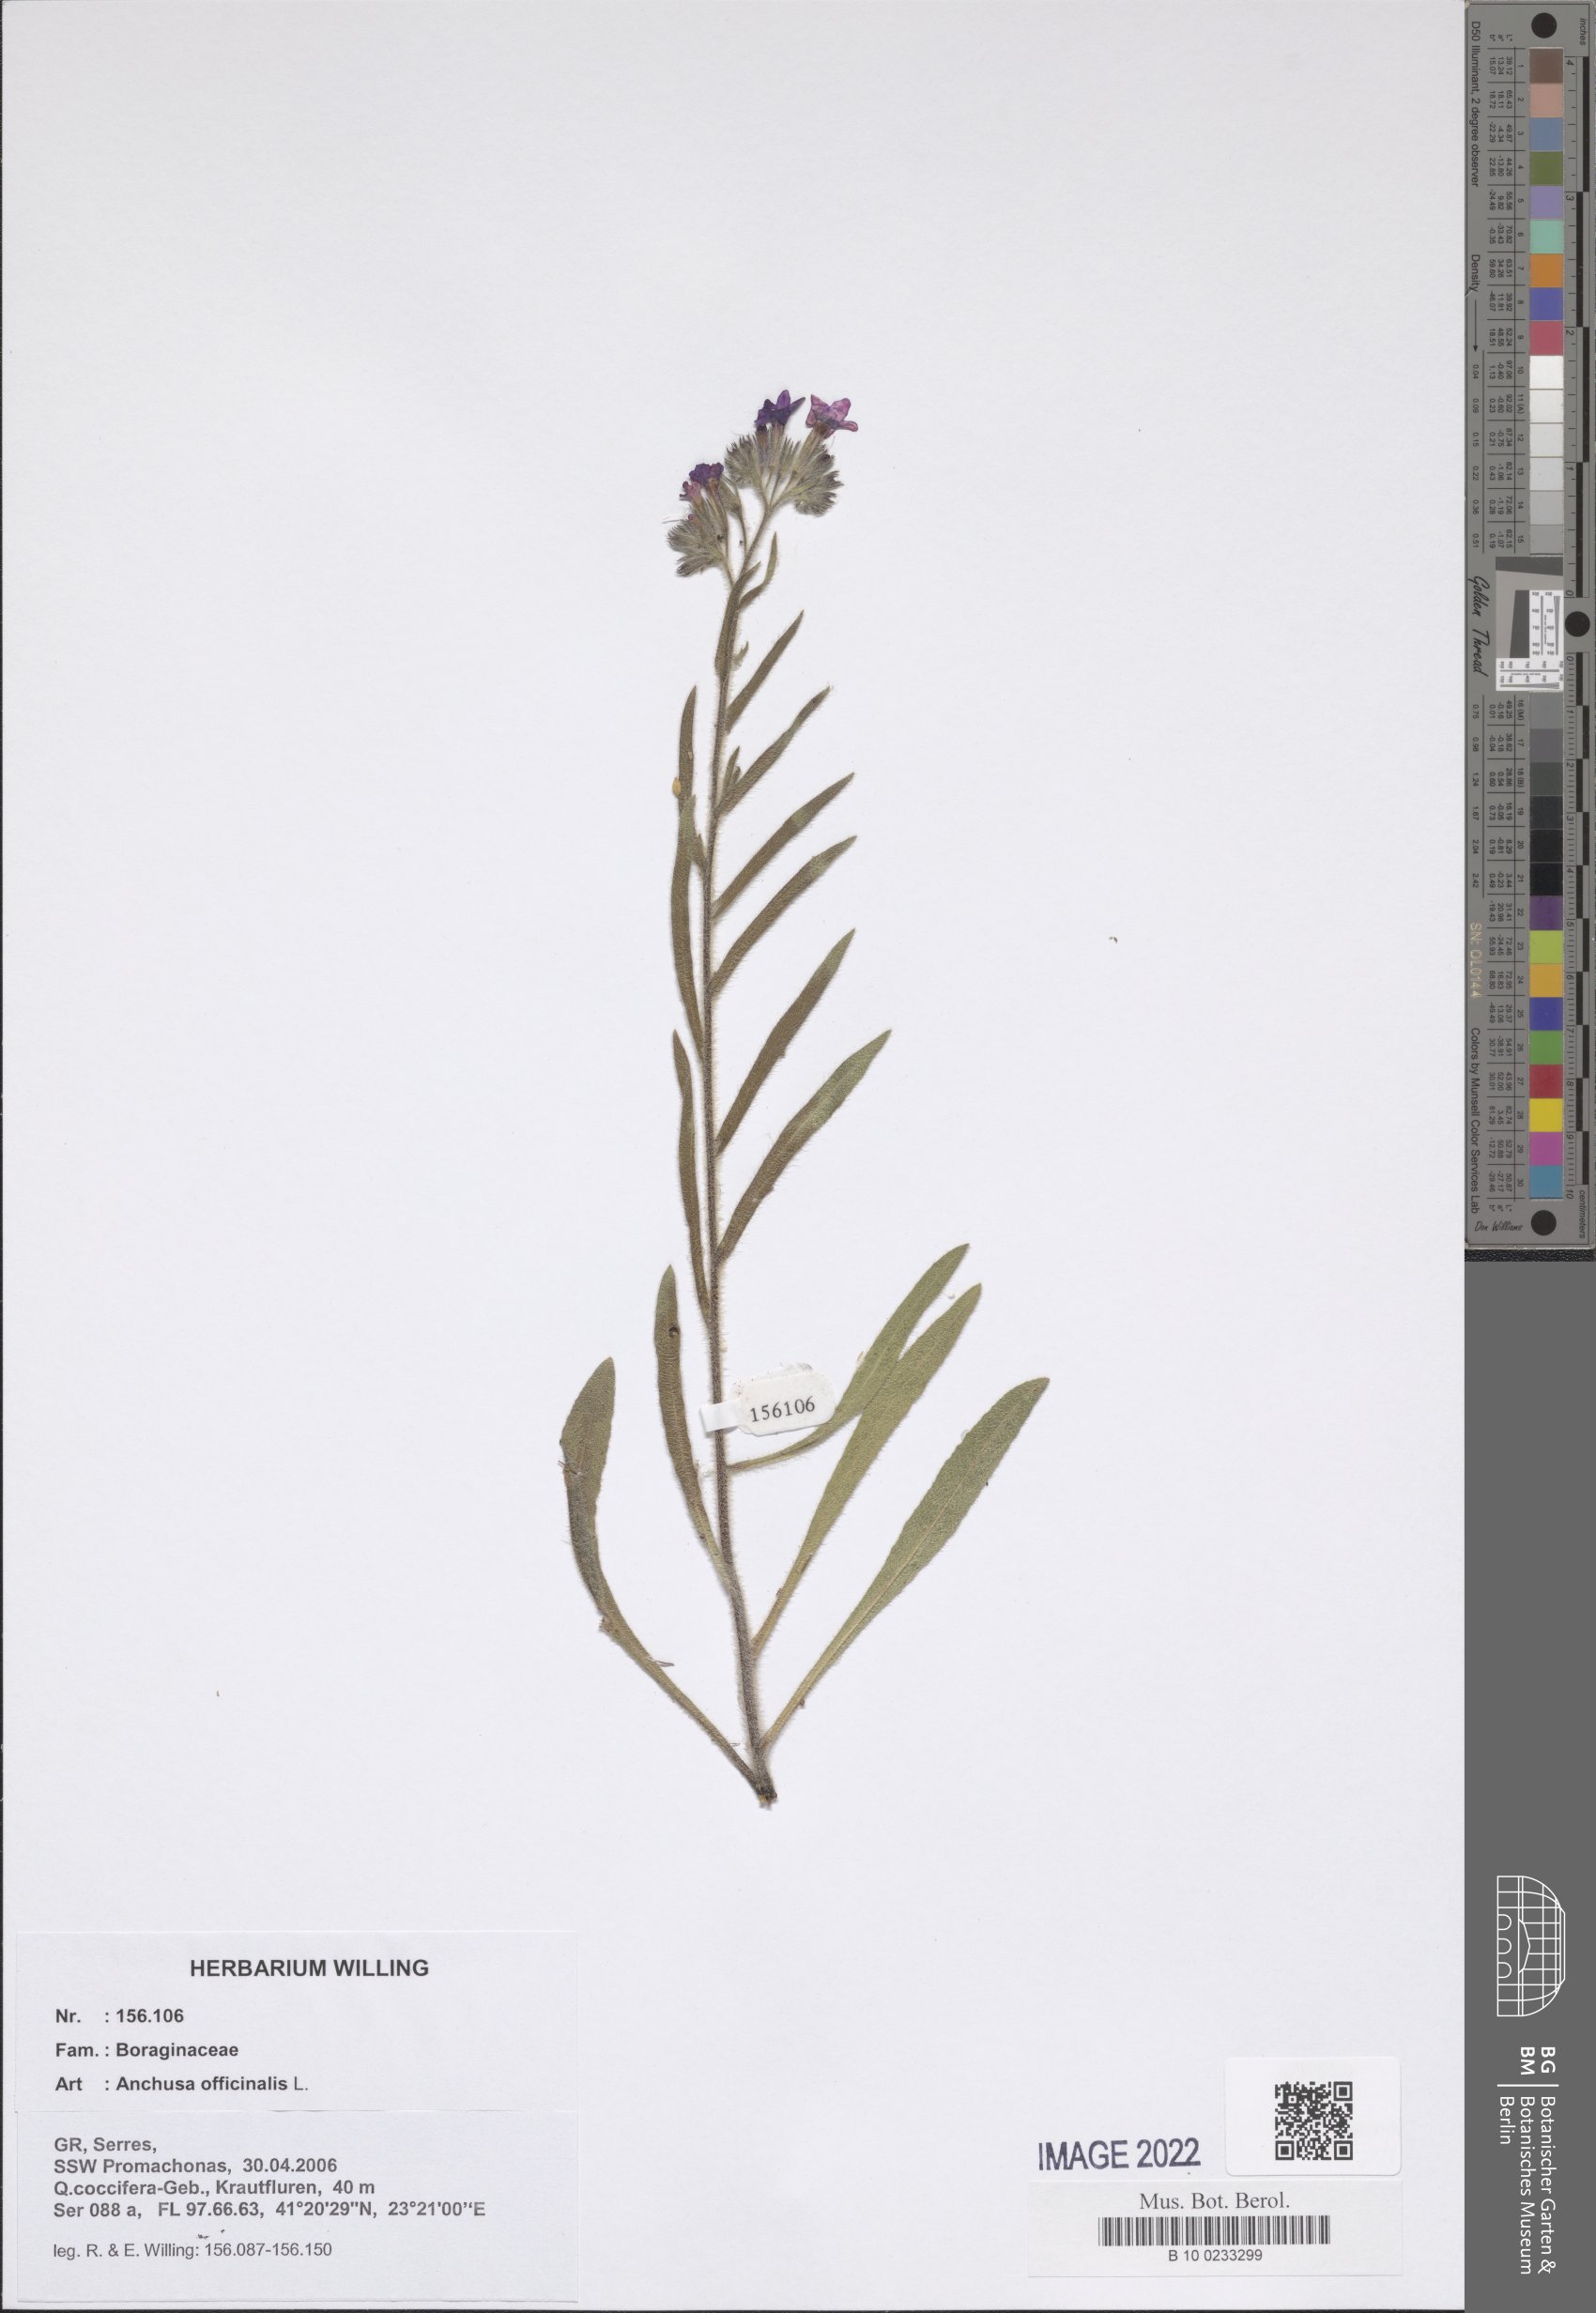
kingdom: Plantae
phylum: Tracheophyta
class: Magnoliopsida
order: Boraginales
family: Boraginaceae
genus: Anchusa
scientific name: Anchusa officinalis
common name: Alkanet
